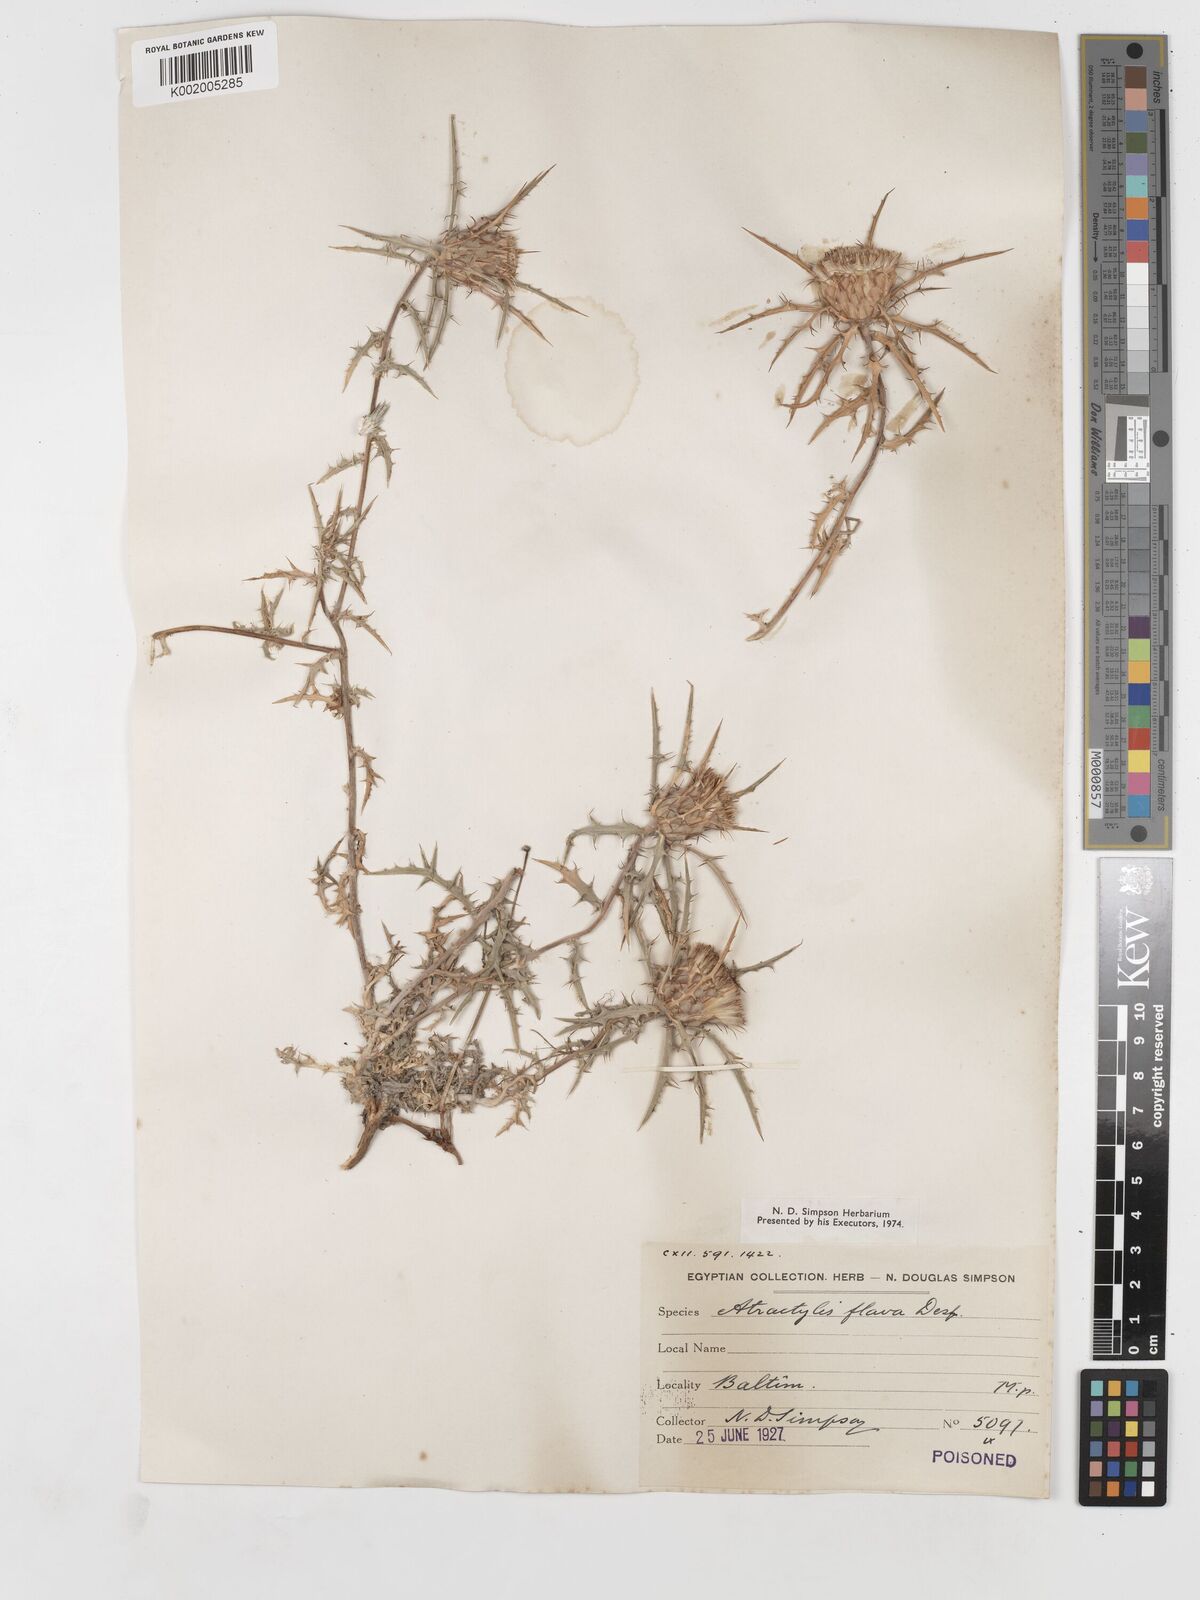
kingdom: Plantae
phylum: Tracheophyta
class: Magnoliopsida
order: Asterales
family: Asteraceae
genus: Atractylis
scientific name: Atractylis carduus
